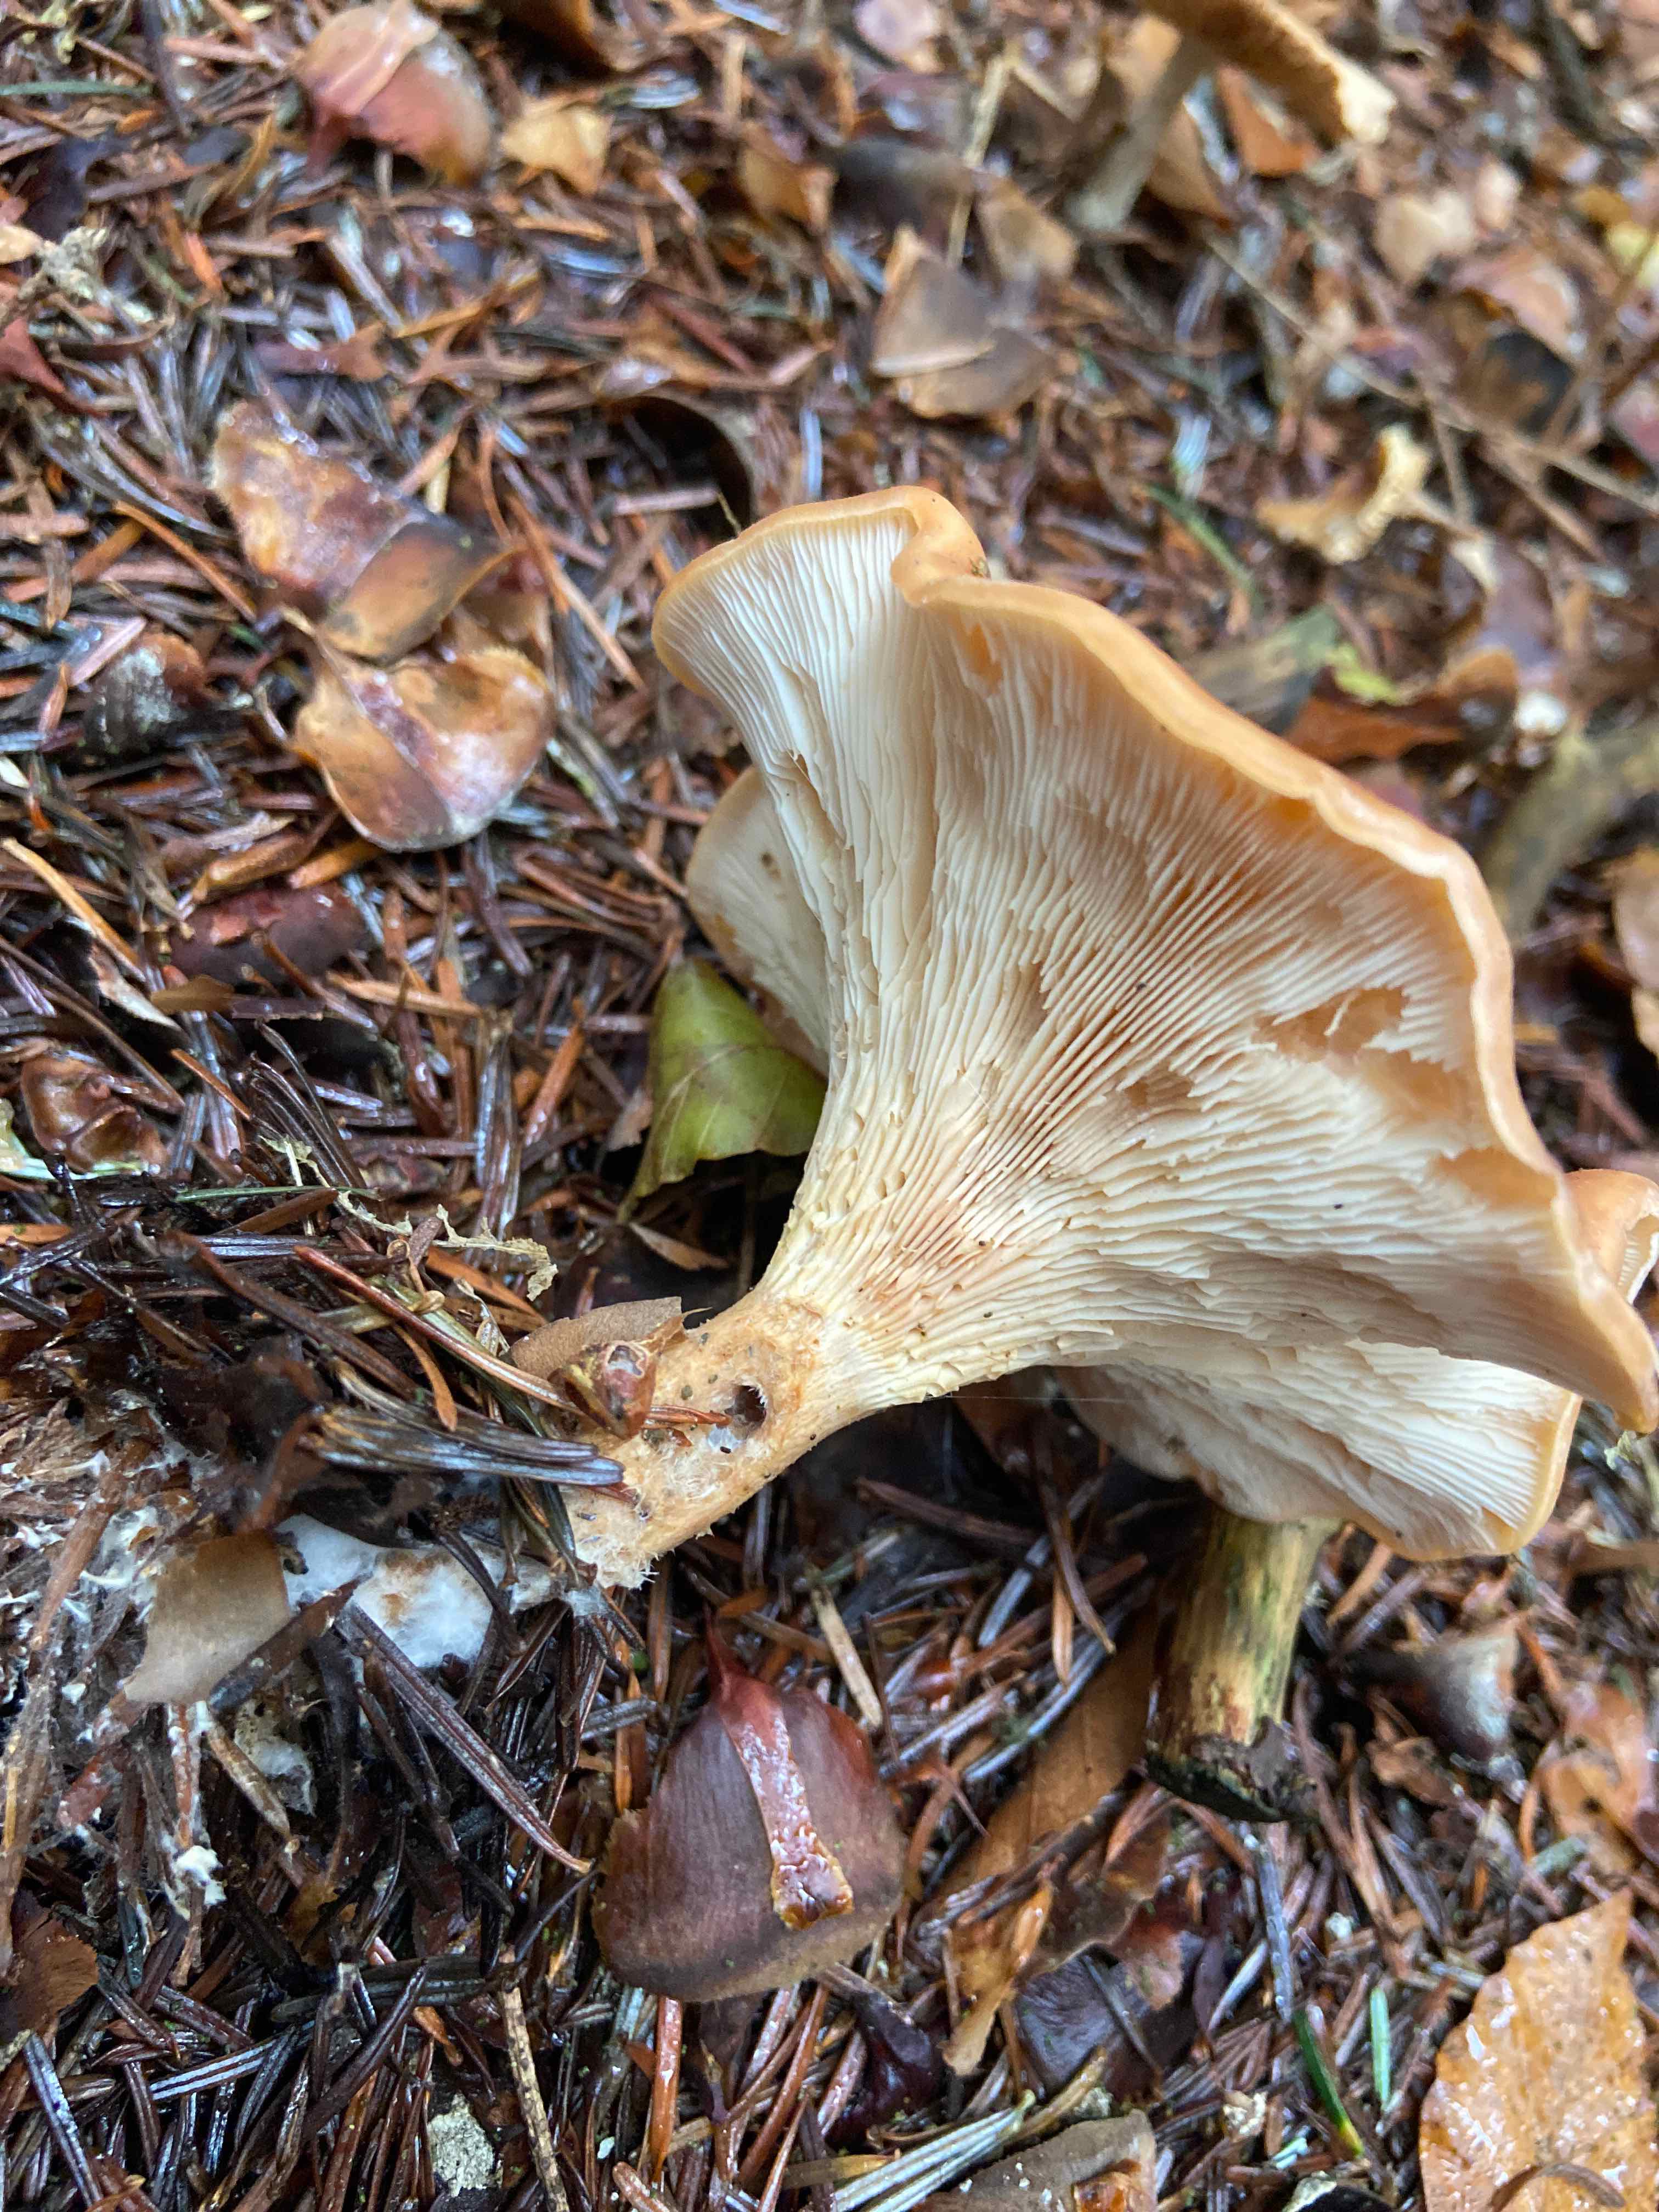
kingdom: Fungi
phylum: Basidiomycota
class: Agaricomycetes
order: Agaricales
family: Tricholomataceae
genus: Paralepista
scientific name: Paralepista flaccida
